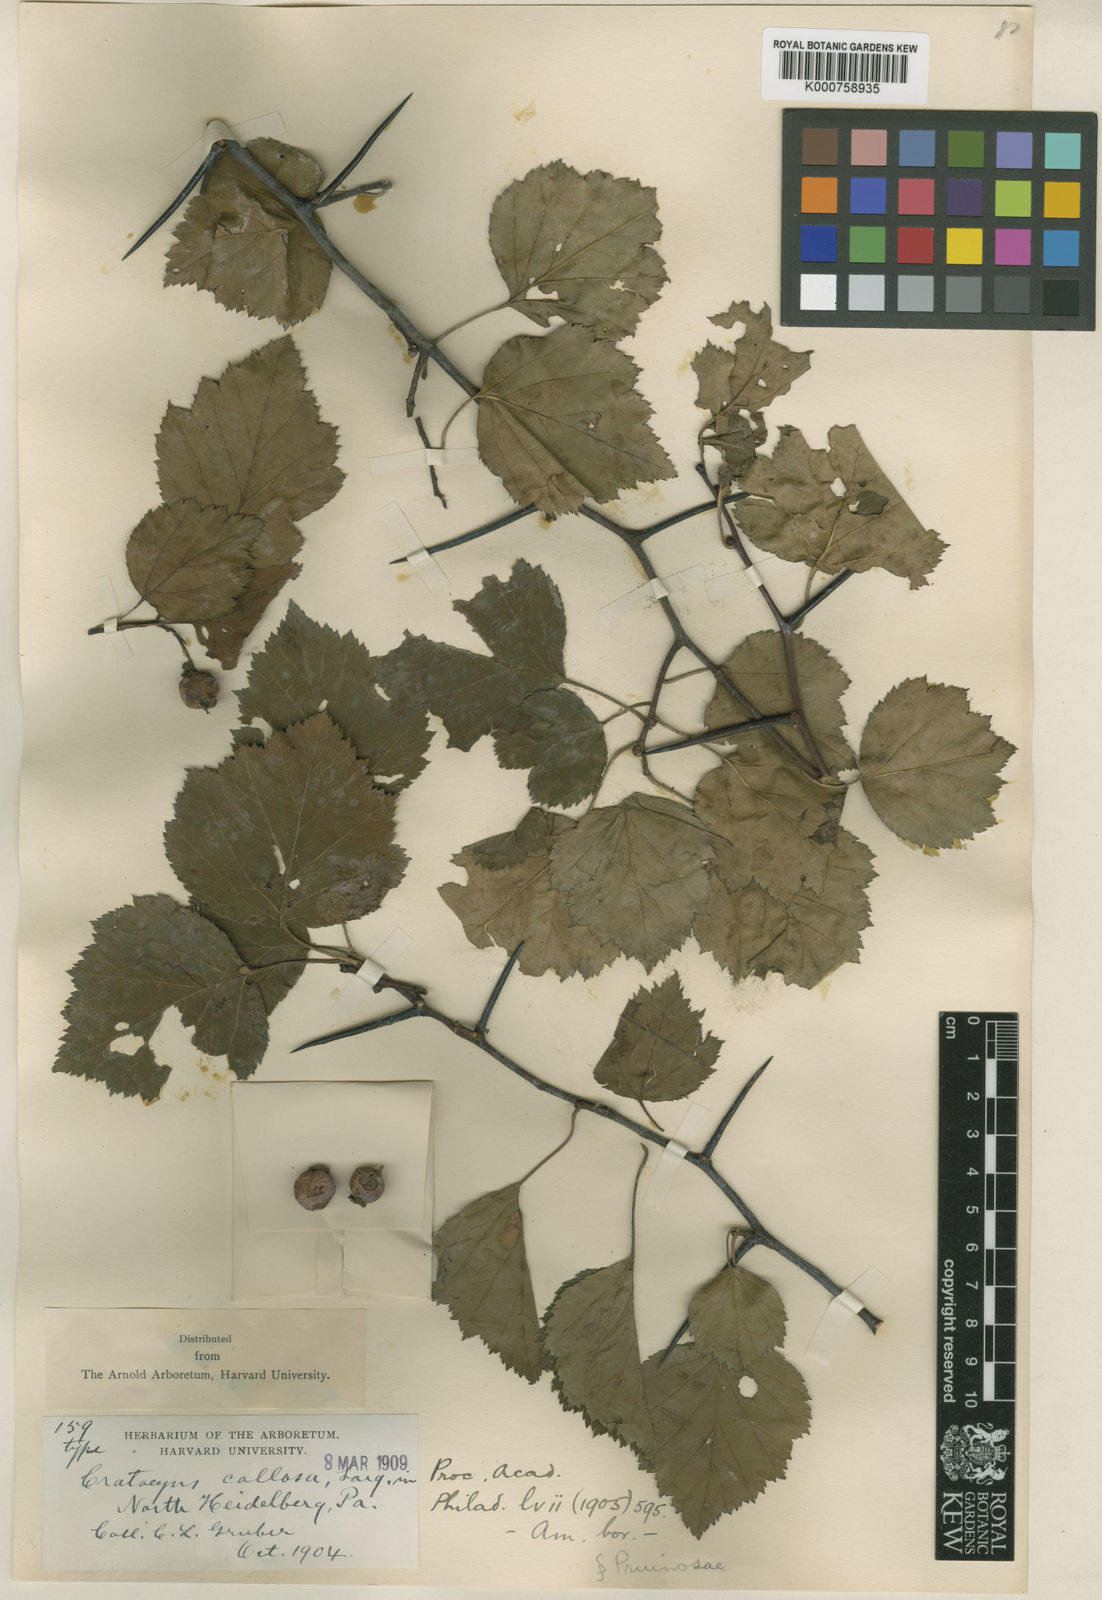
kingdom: Plantae
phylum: Tracheophyta
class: Magnoliopsida
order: Rosales
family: Rosaceae
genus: Crataegus
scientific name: Crataegus callosa
